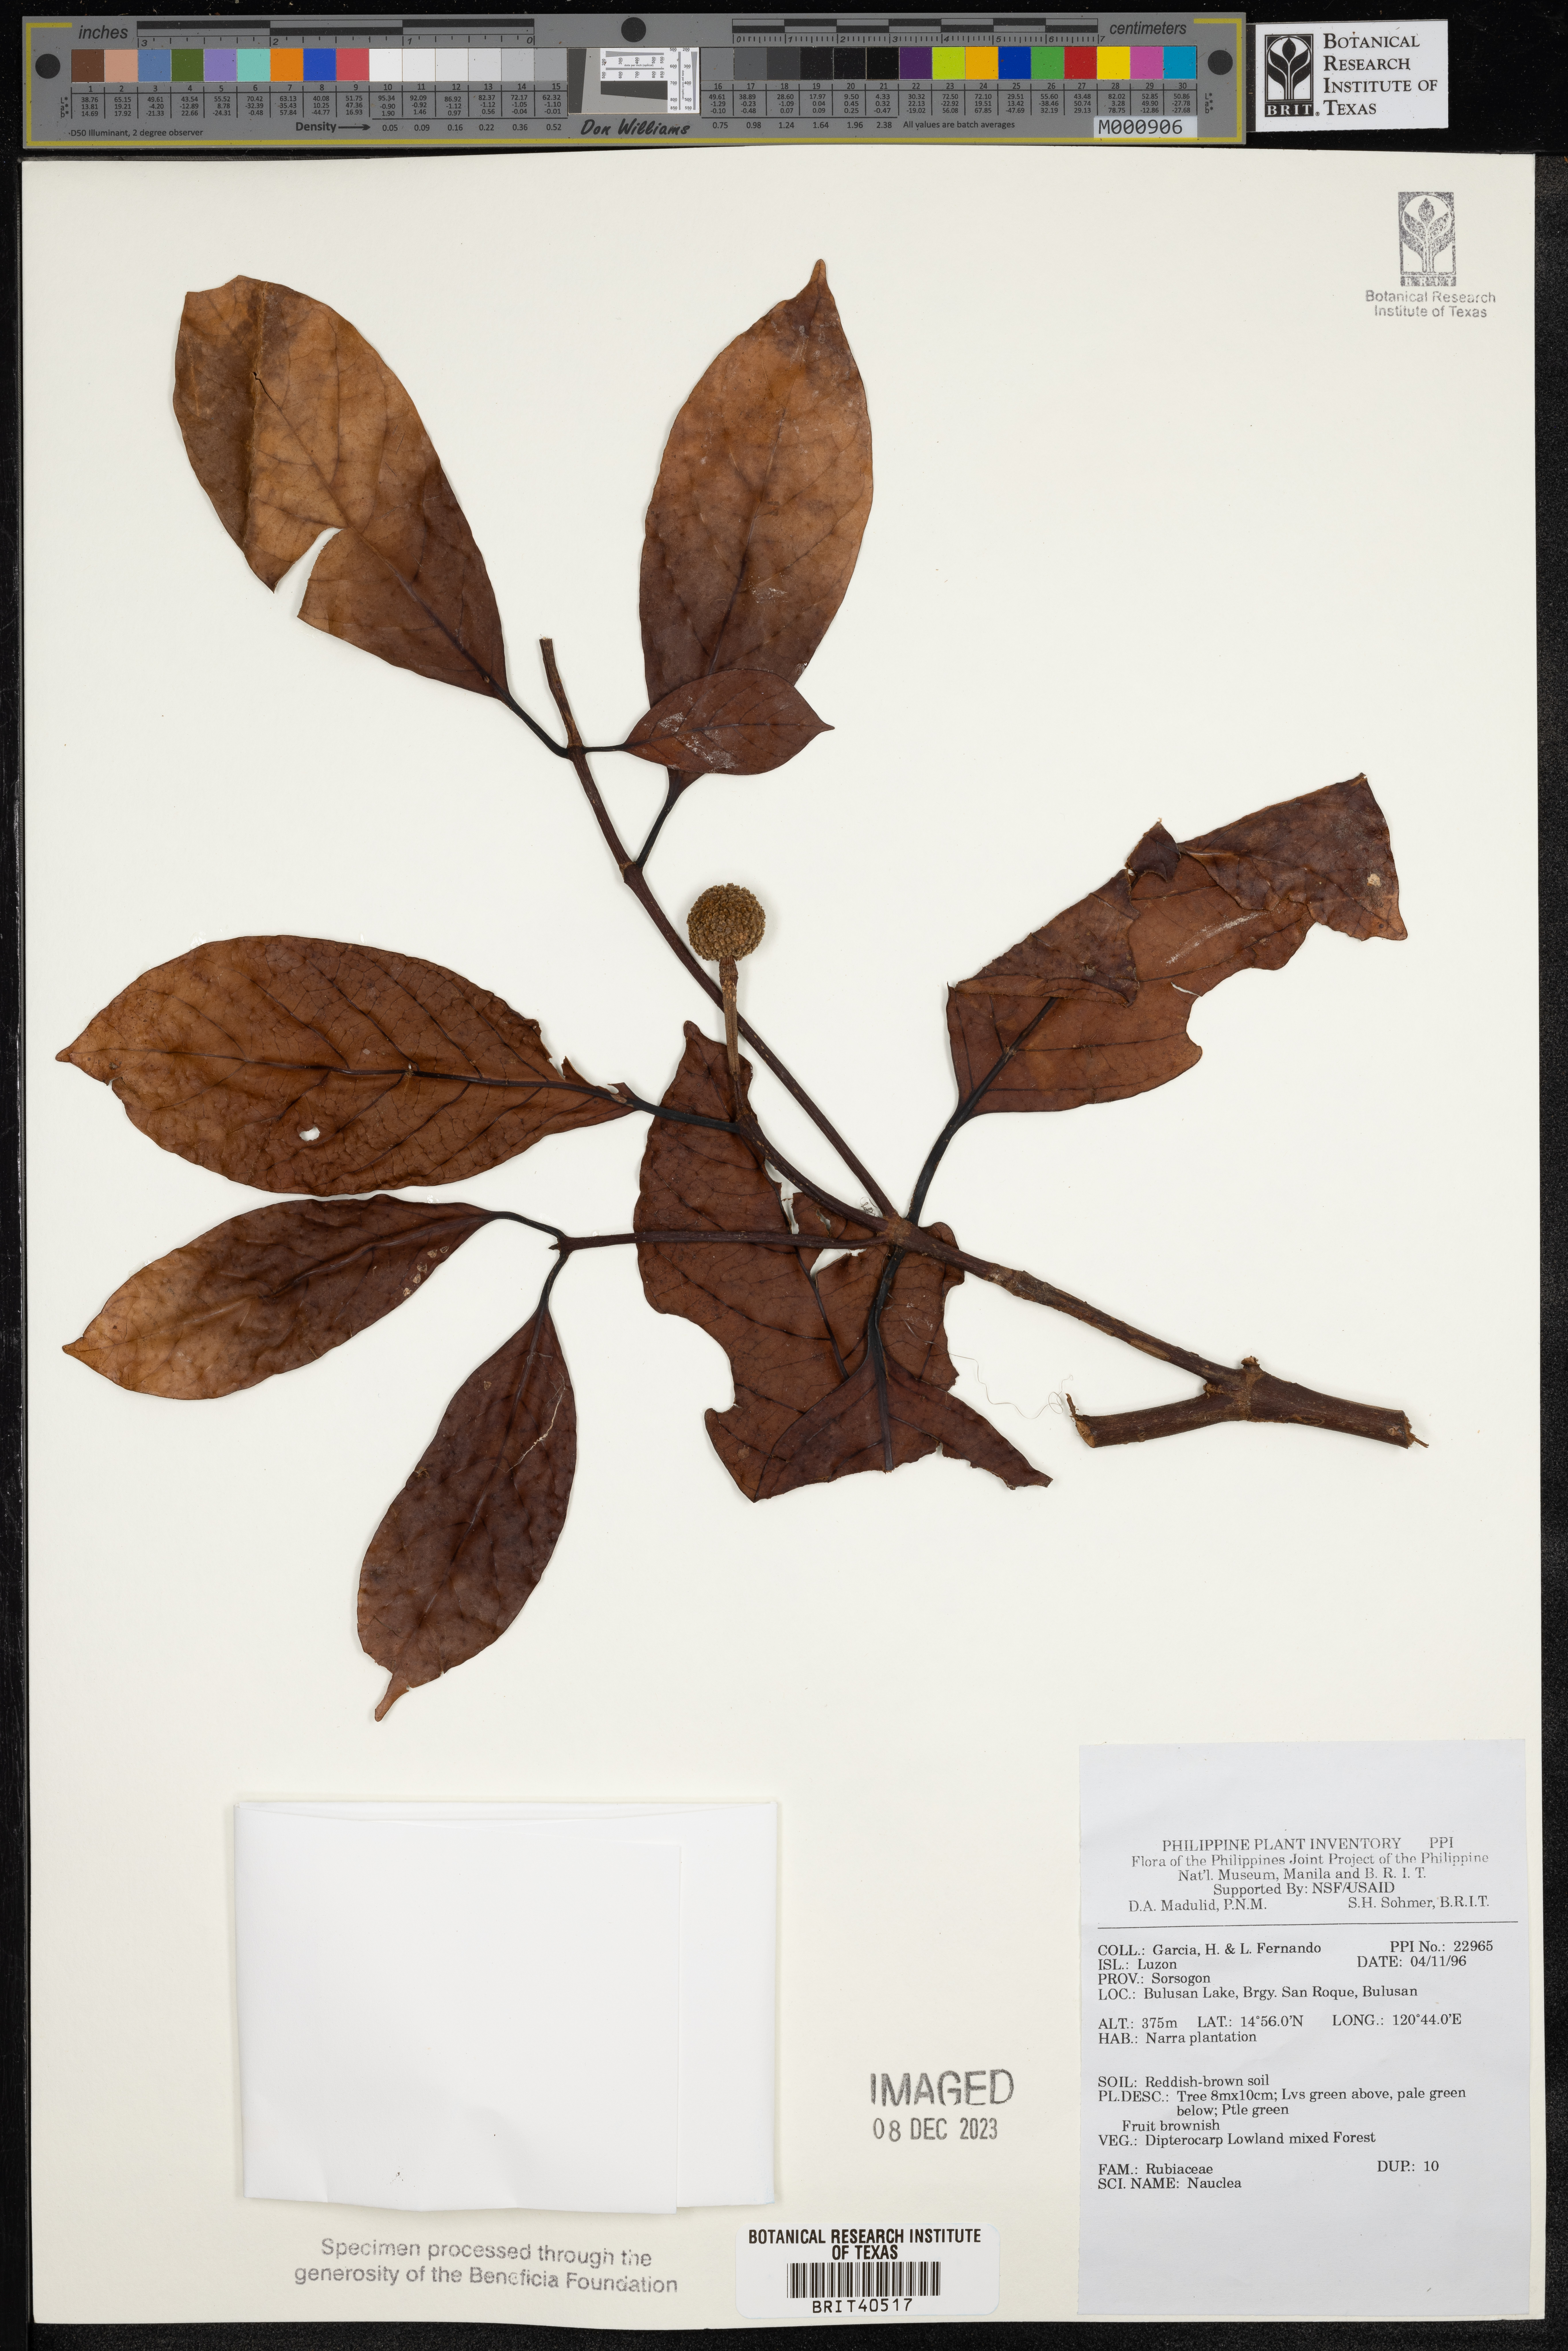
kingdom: Plantae
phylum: Tracheophyta
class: Magnoliopsida
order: Gentianales
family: Rubiaceae
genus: Nauclea
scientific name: Nauclea
